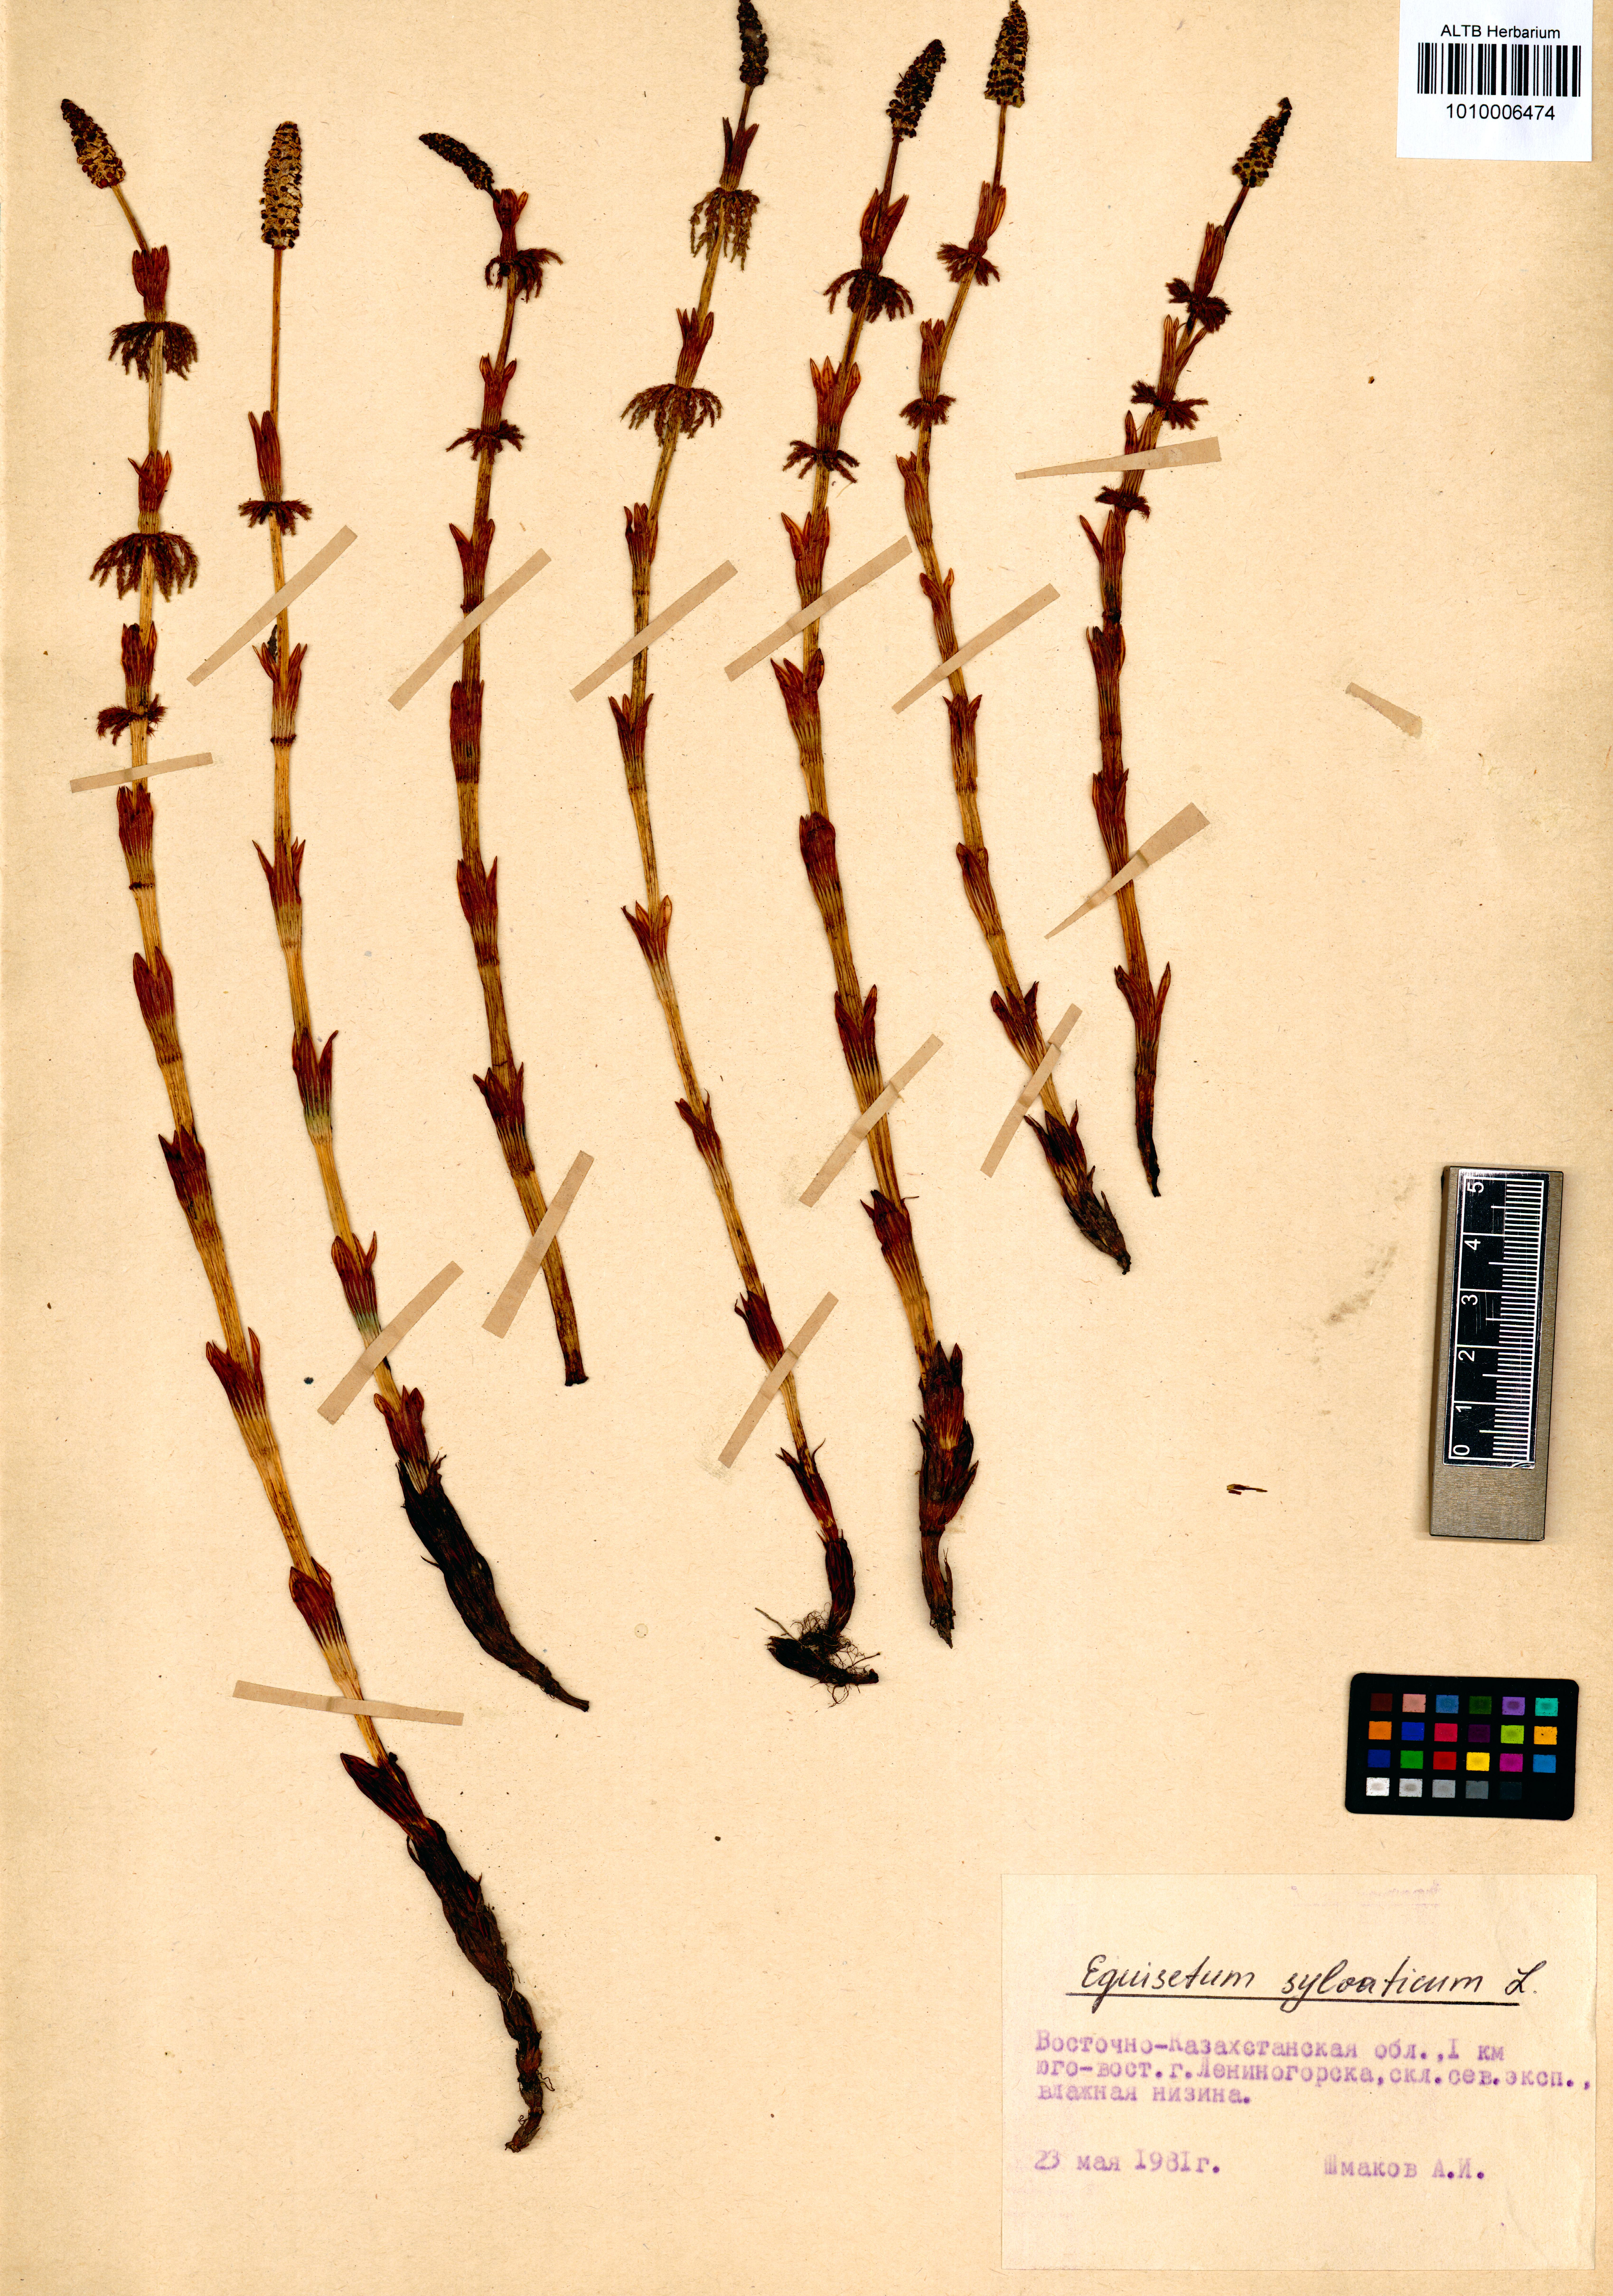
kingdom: Plantae
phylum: Tracheophyta
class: Polypodiopsida
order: Equisetales
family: Equisetaceae
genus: Equisetum
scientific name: Equisetum sylvaticum
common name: Wood horsetail
